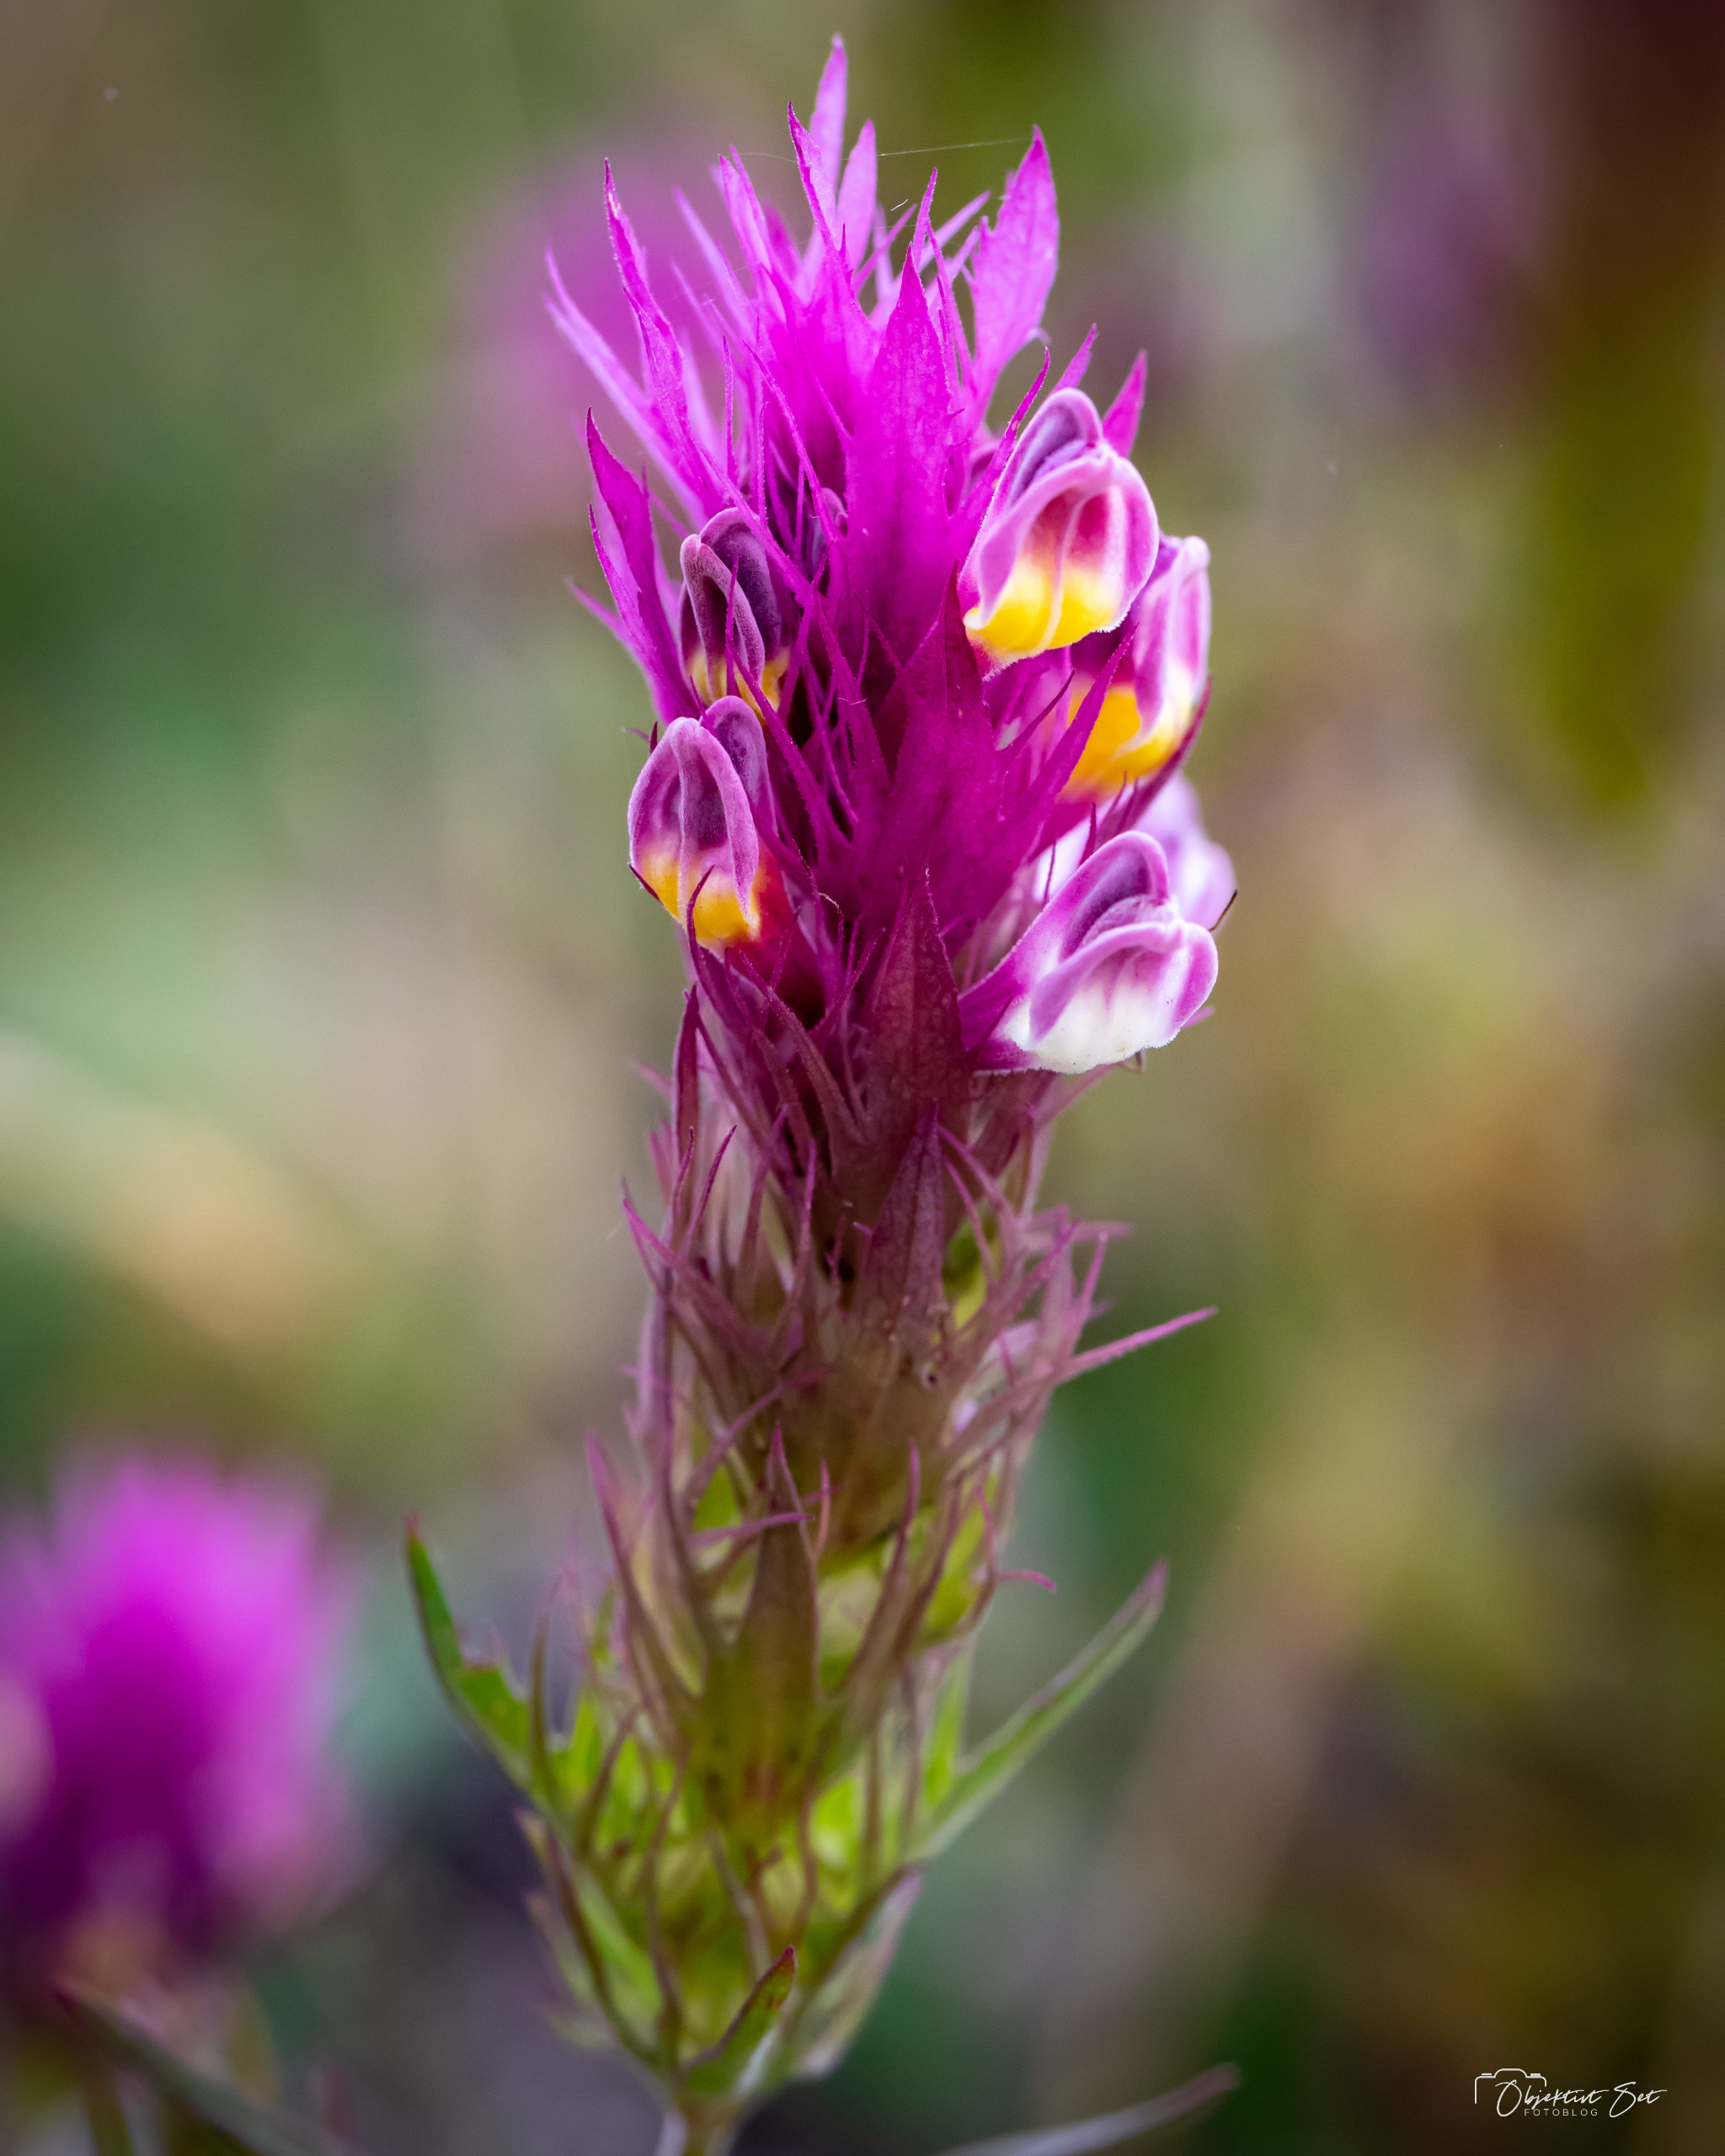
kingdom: Plantae
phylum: Tracheophyta
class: Magnoliopsida
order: Lamiales
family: Orobanchaceae
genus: Melampyrum
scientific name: Melampyrum arvense
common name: Ager-kohvede
